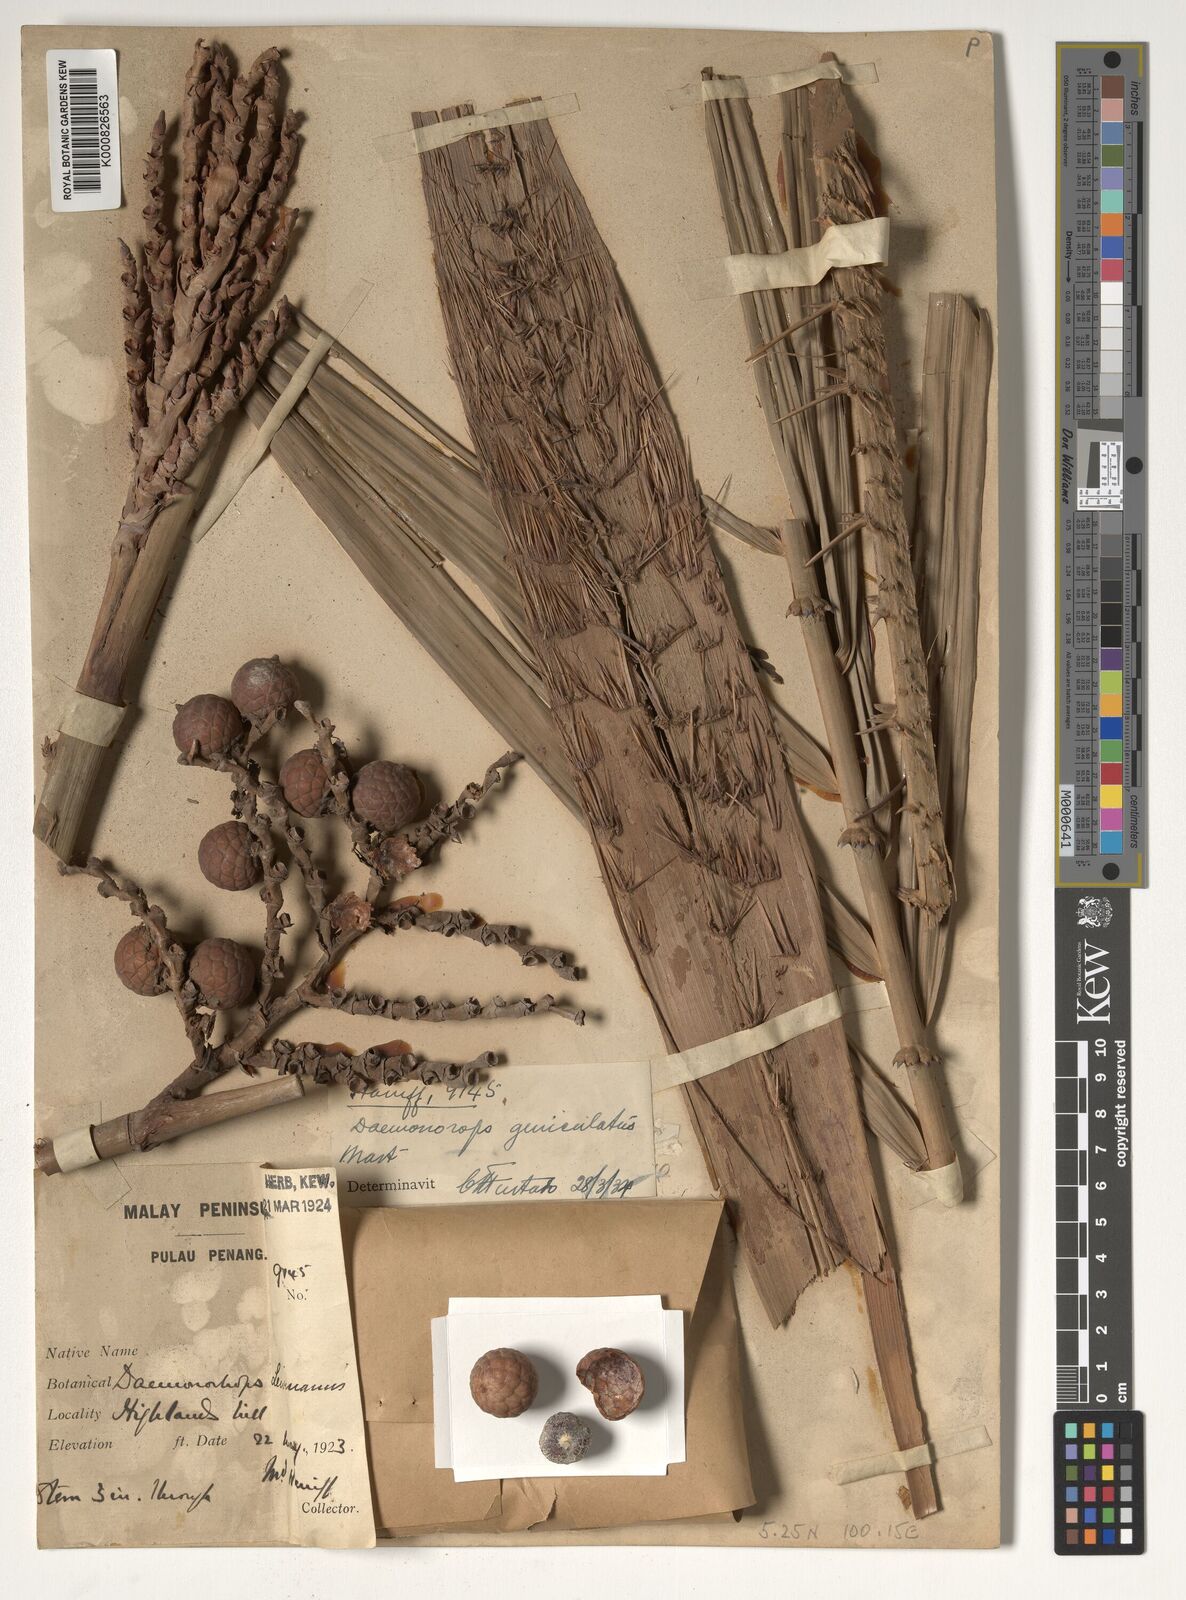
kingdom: Plantae
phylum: Tracheophyta
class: Liliopsida
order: Arecales
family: Arecaceae
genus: Calamus
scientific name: Calamus geniculatus
